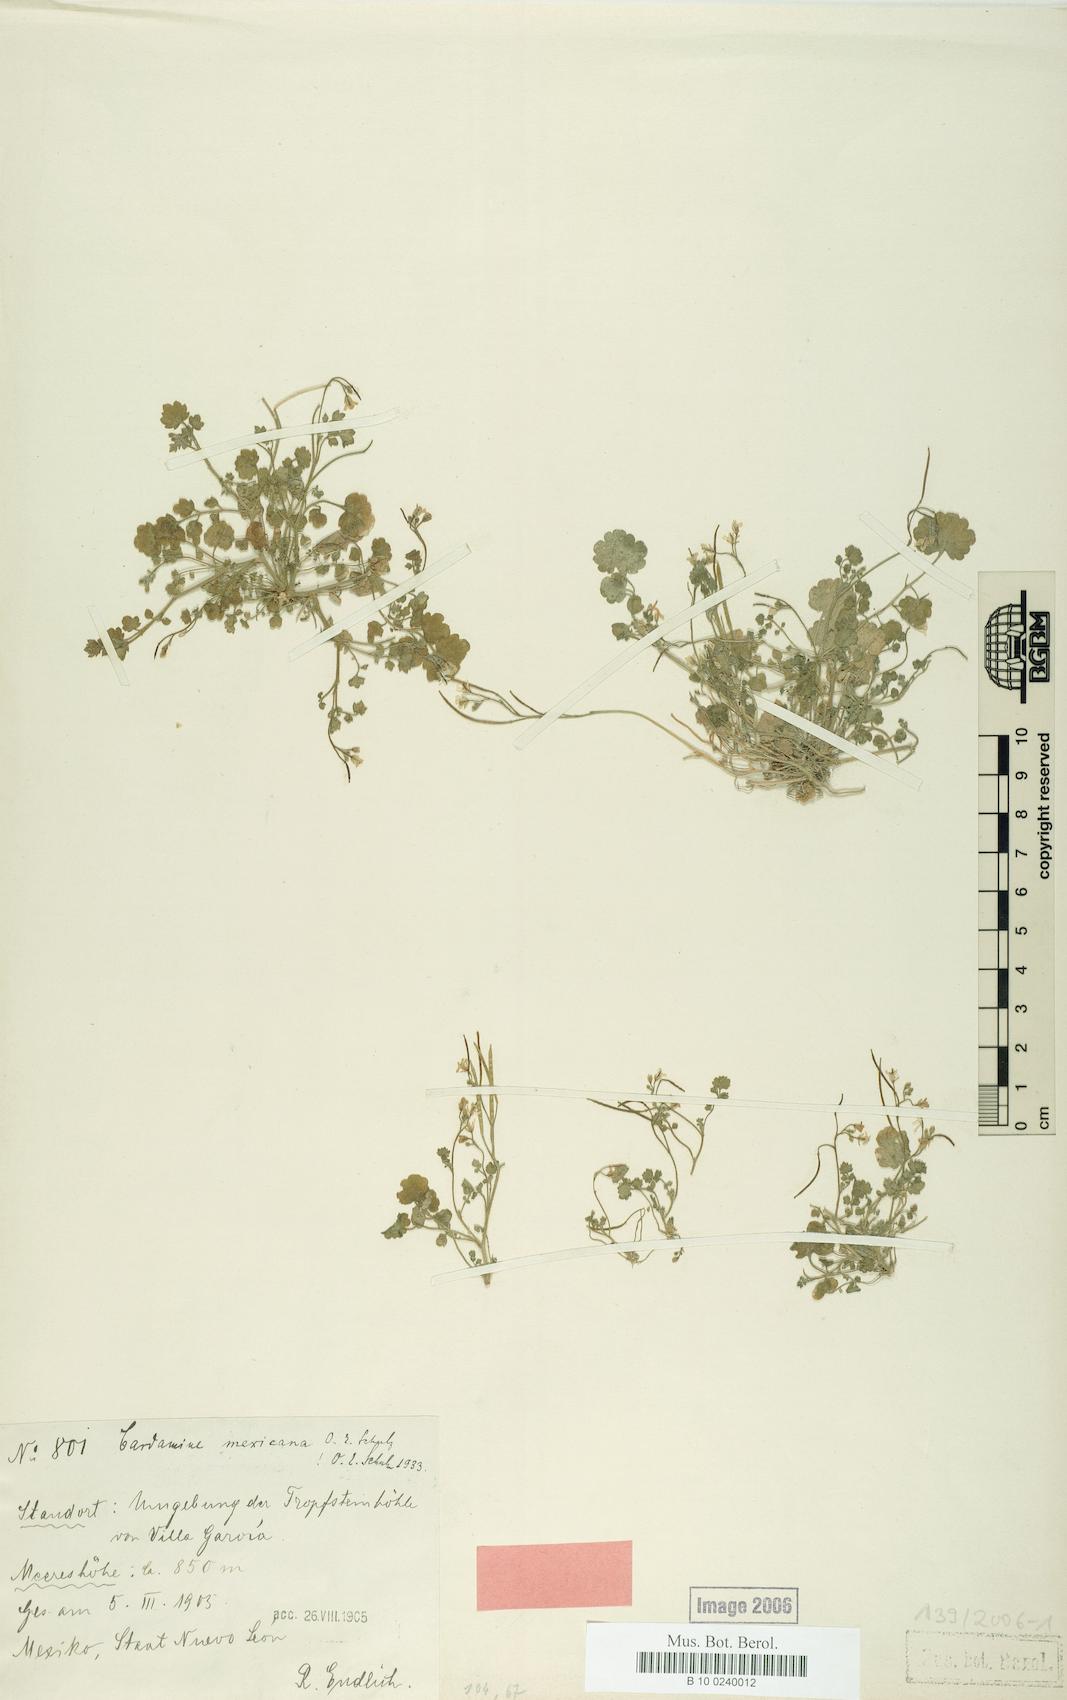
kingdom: Plantae
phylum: Tracheophyta
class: Magnoliopsida
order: Brassicales
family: Brassicaceae
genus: Cardamine
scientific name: Cardamine mexicana
